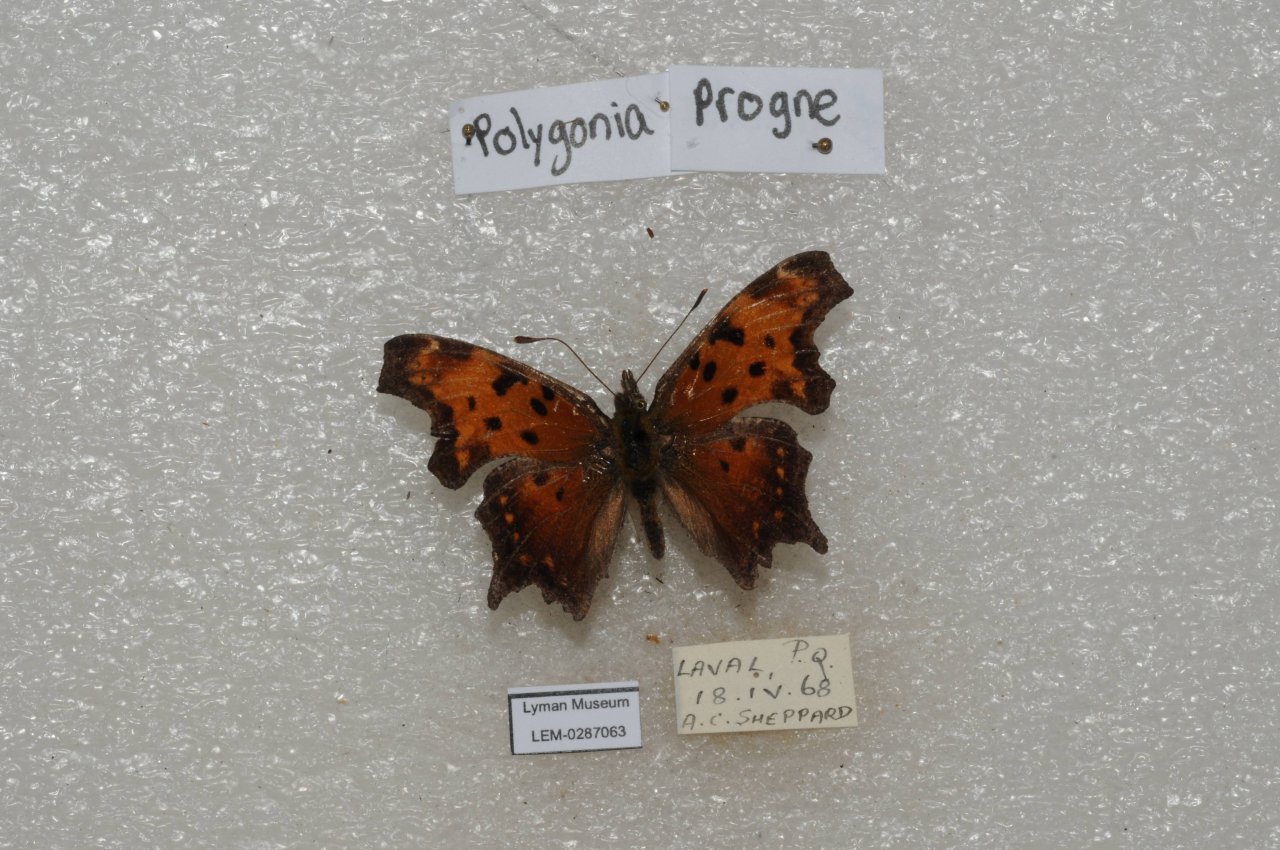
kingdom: Animalia
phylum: Arthropoda
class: Insecta
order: Lepidoptera
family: Nymphalidae
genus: Polygonia
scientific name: Polygonia progne
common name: Gray Comma
